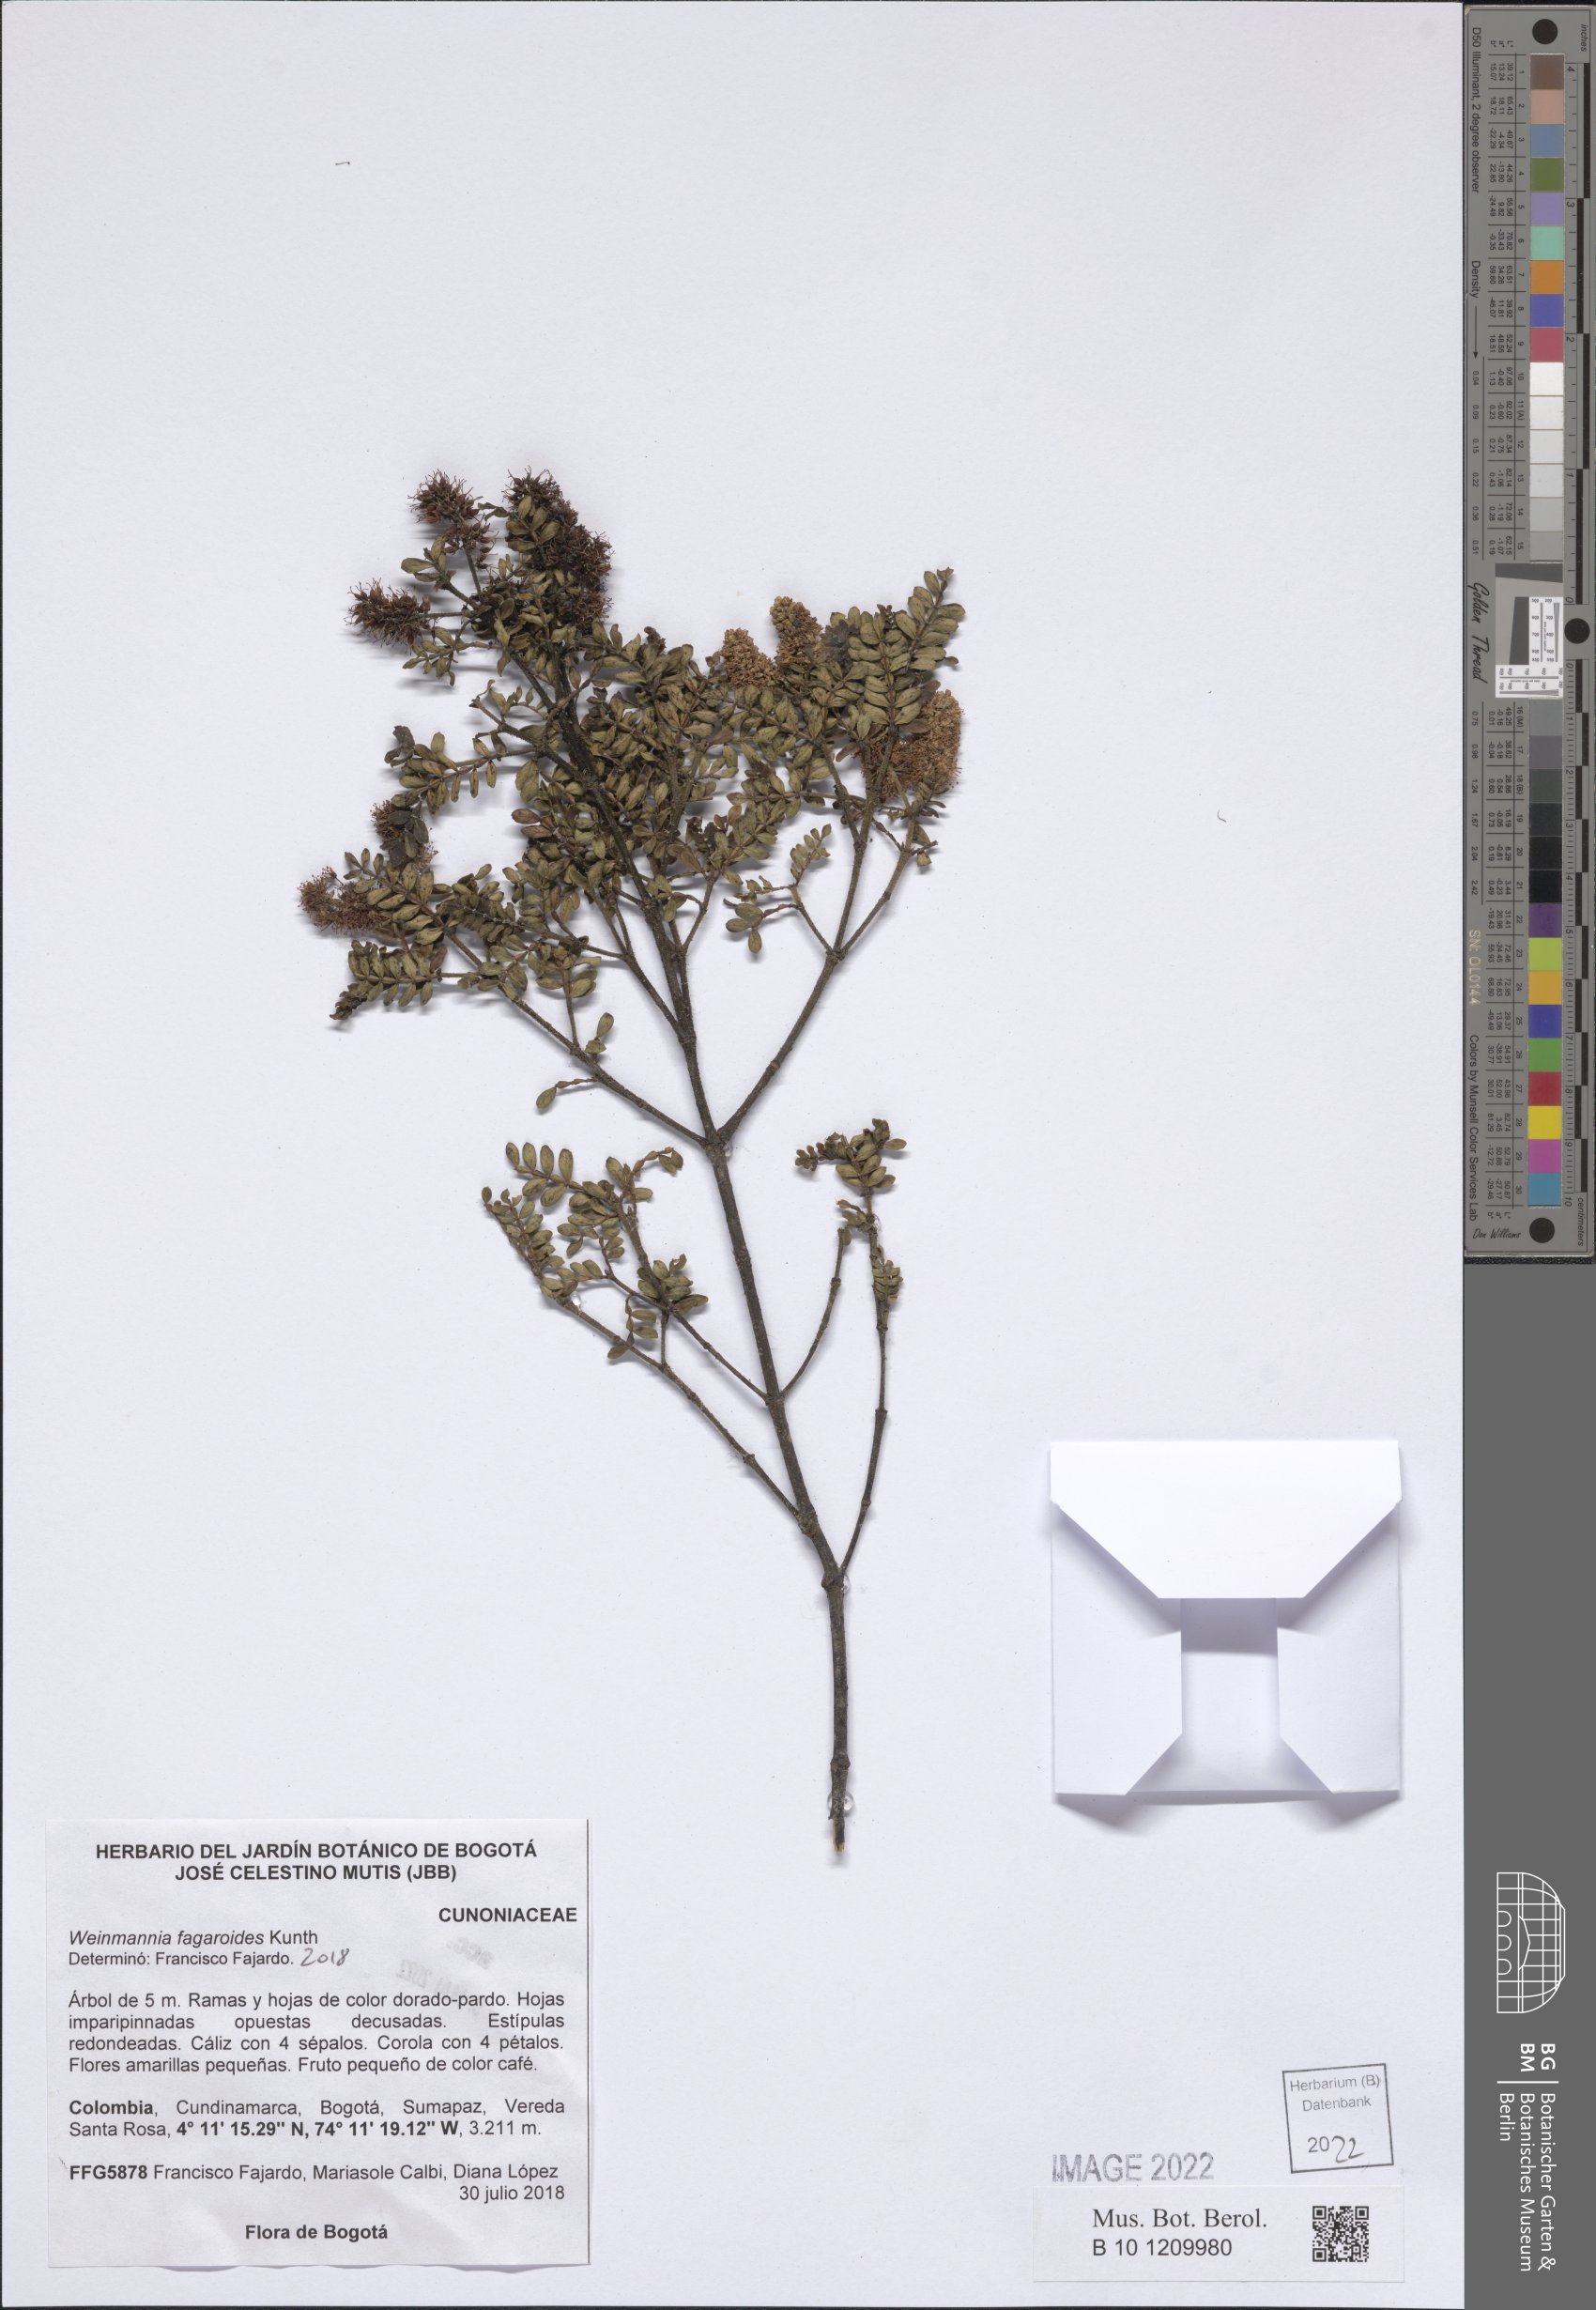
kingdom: Plantae
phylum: Tracheophyta
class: Magnoliopsida
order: Oxalidales
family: Cunoniaceae
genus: Weinmannia
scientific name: Weinmannia fagaroides
